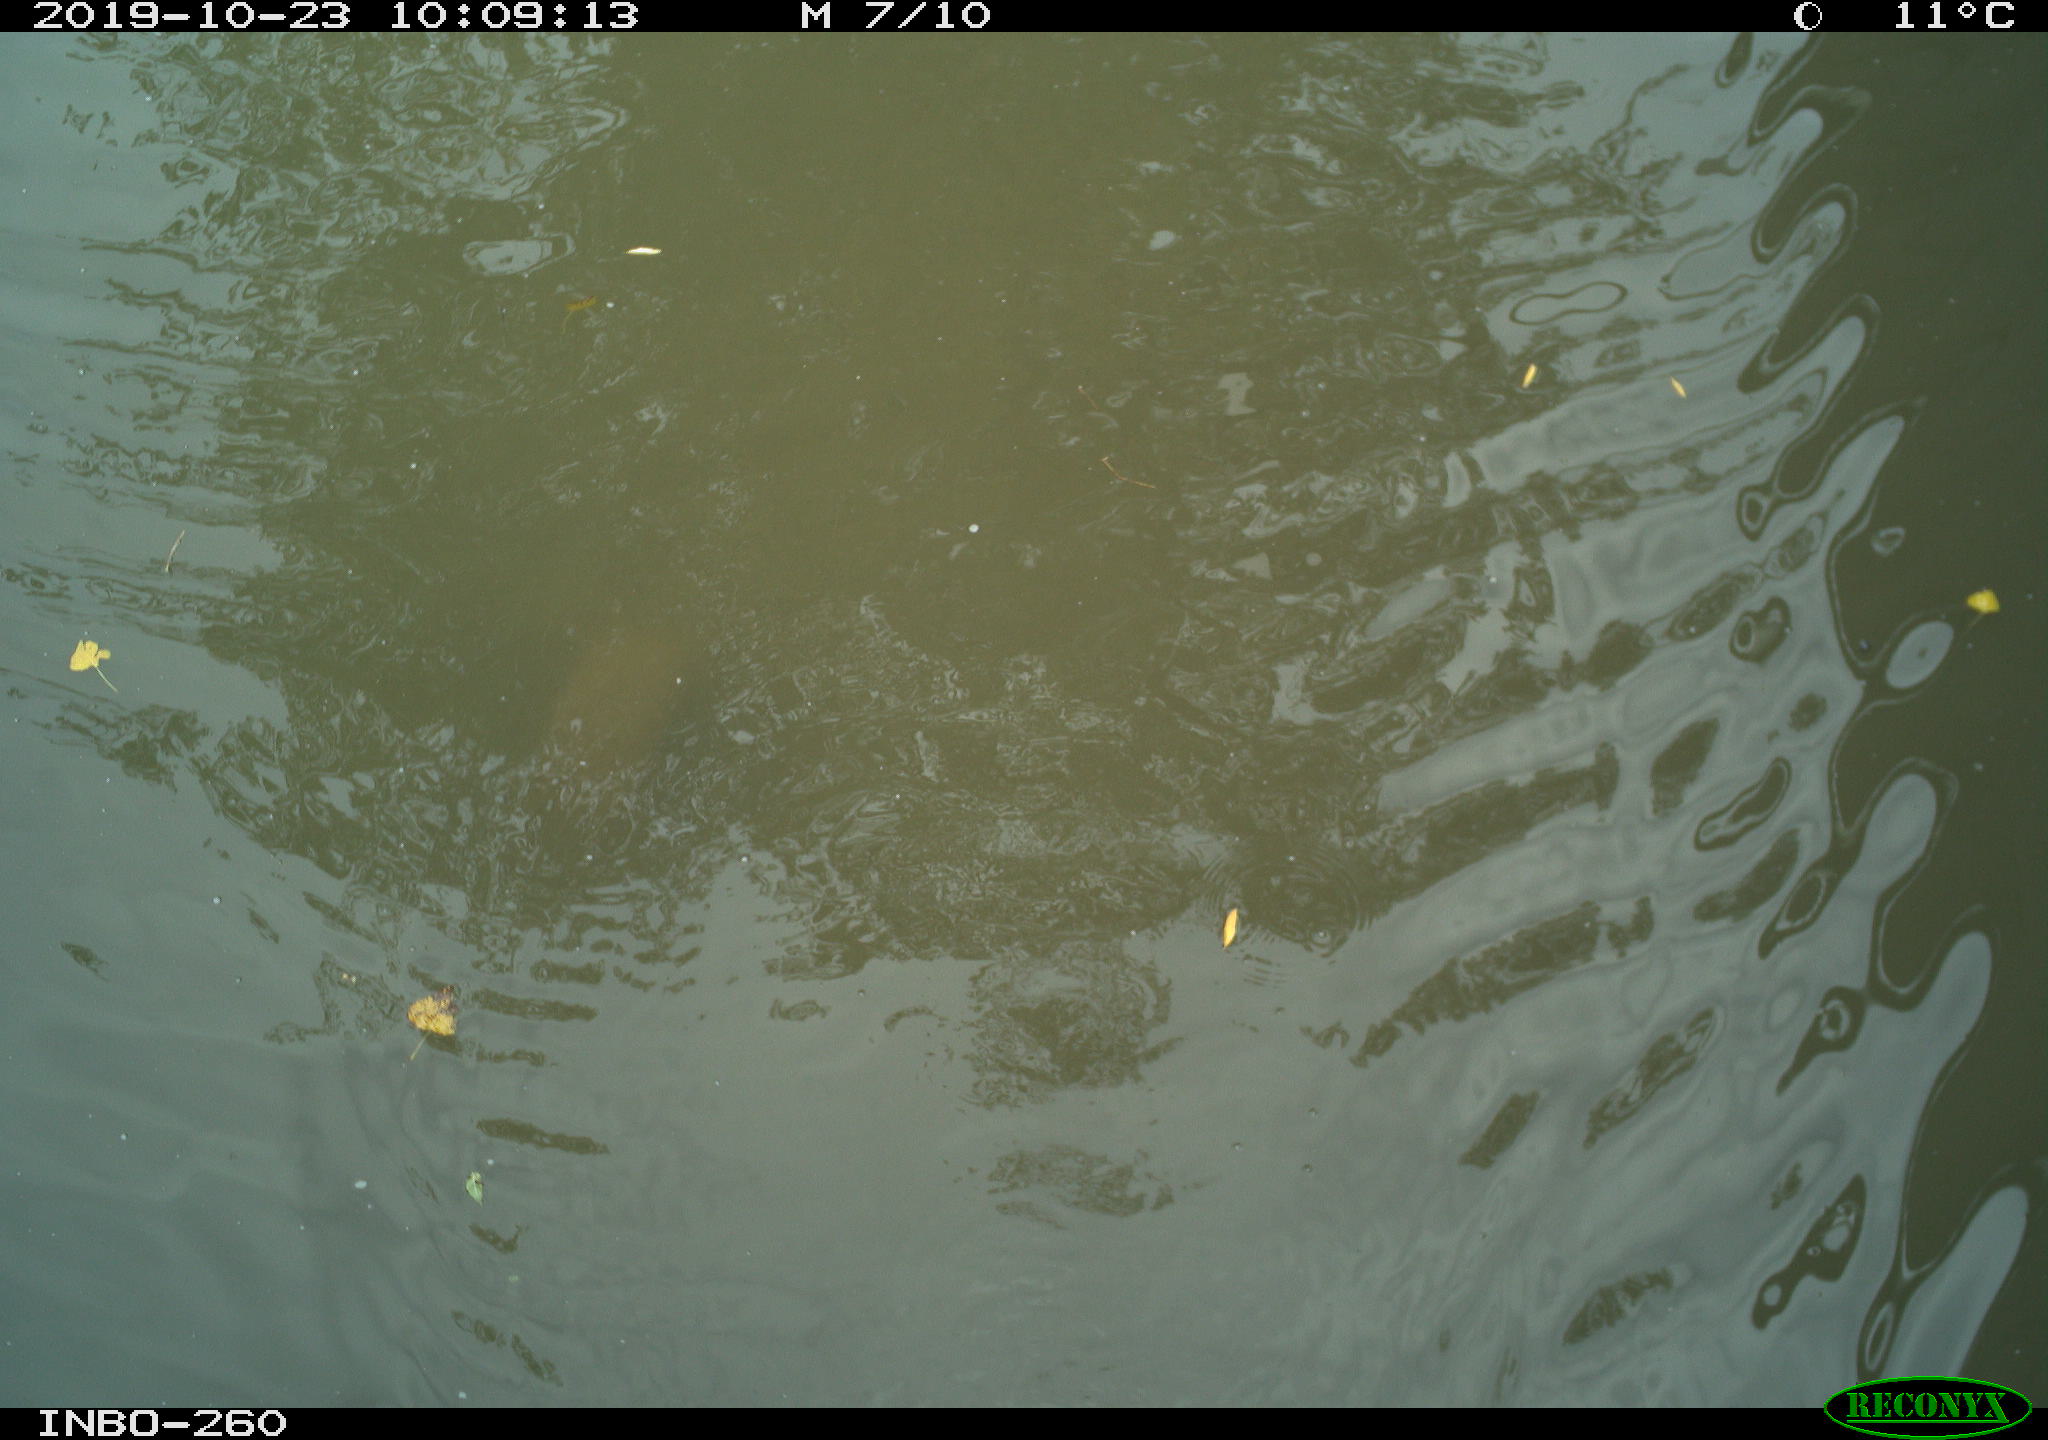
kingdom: Animalia
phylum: Chordata
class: Aves
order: Anseriformes
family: Anatidae
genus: Anas
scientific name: Anas platyrhynchos
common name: Mallard
